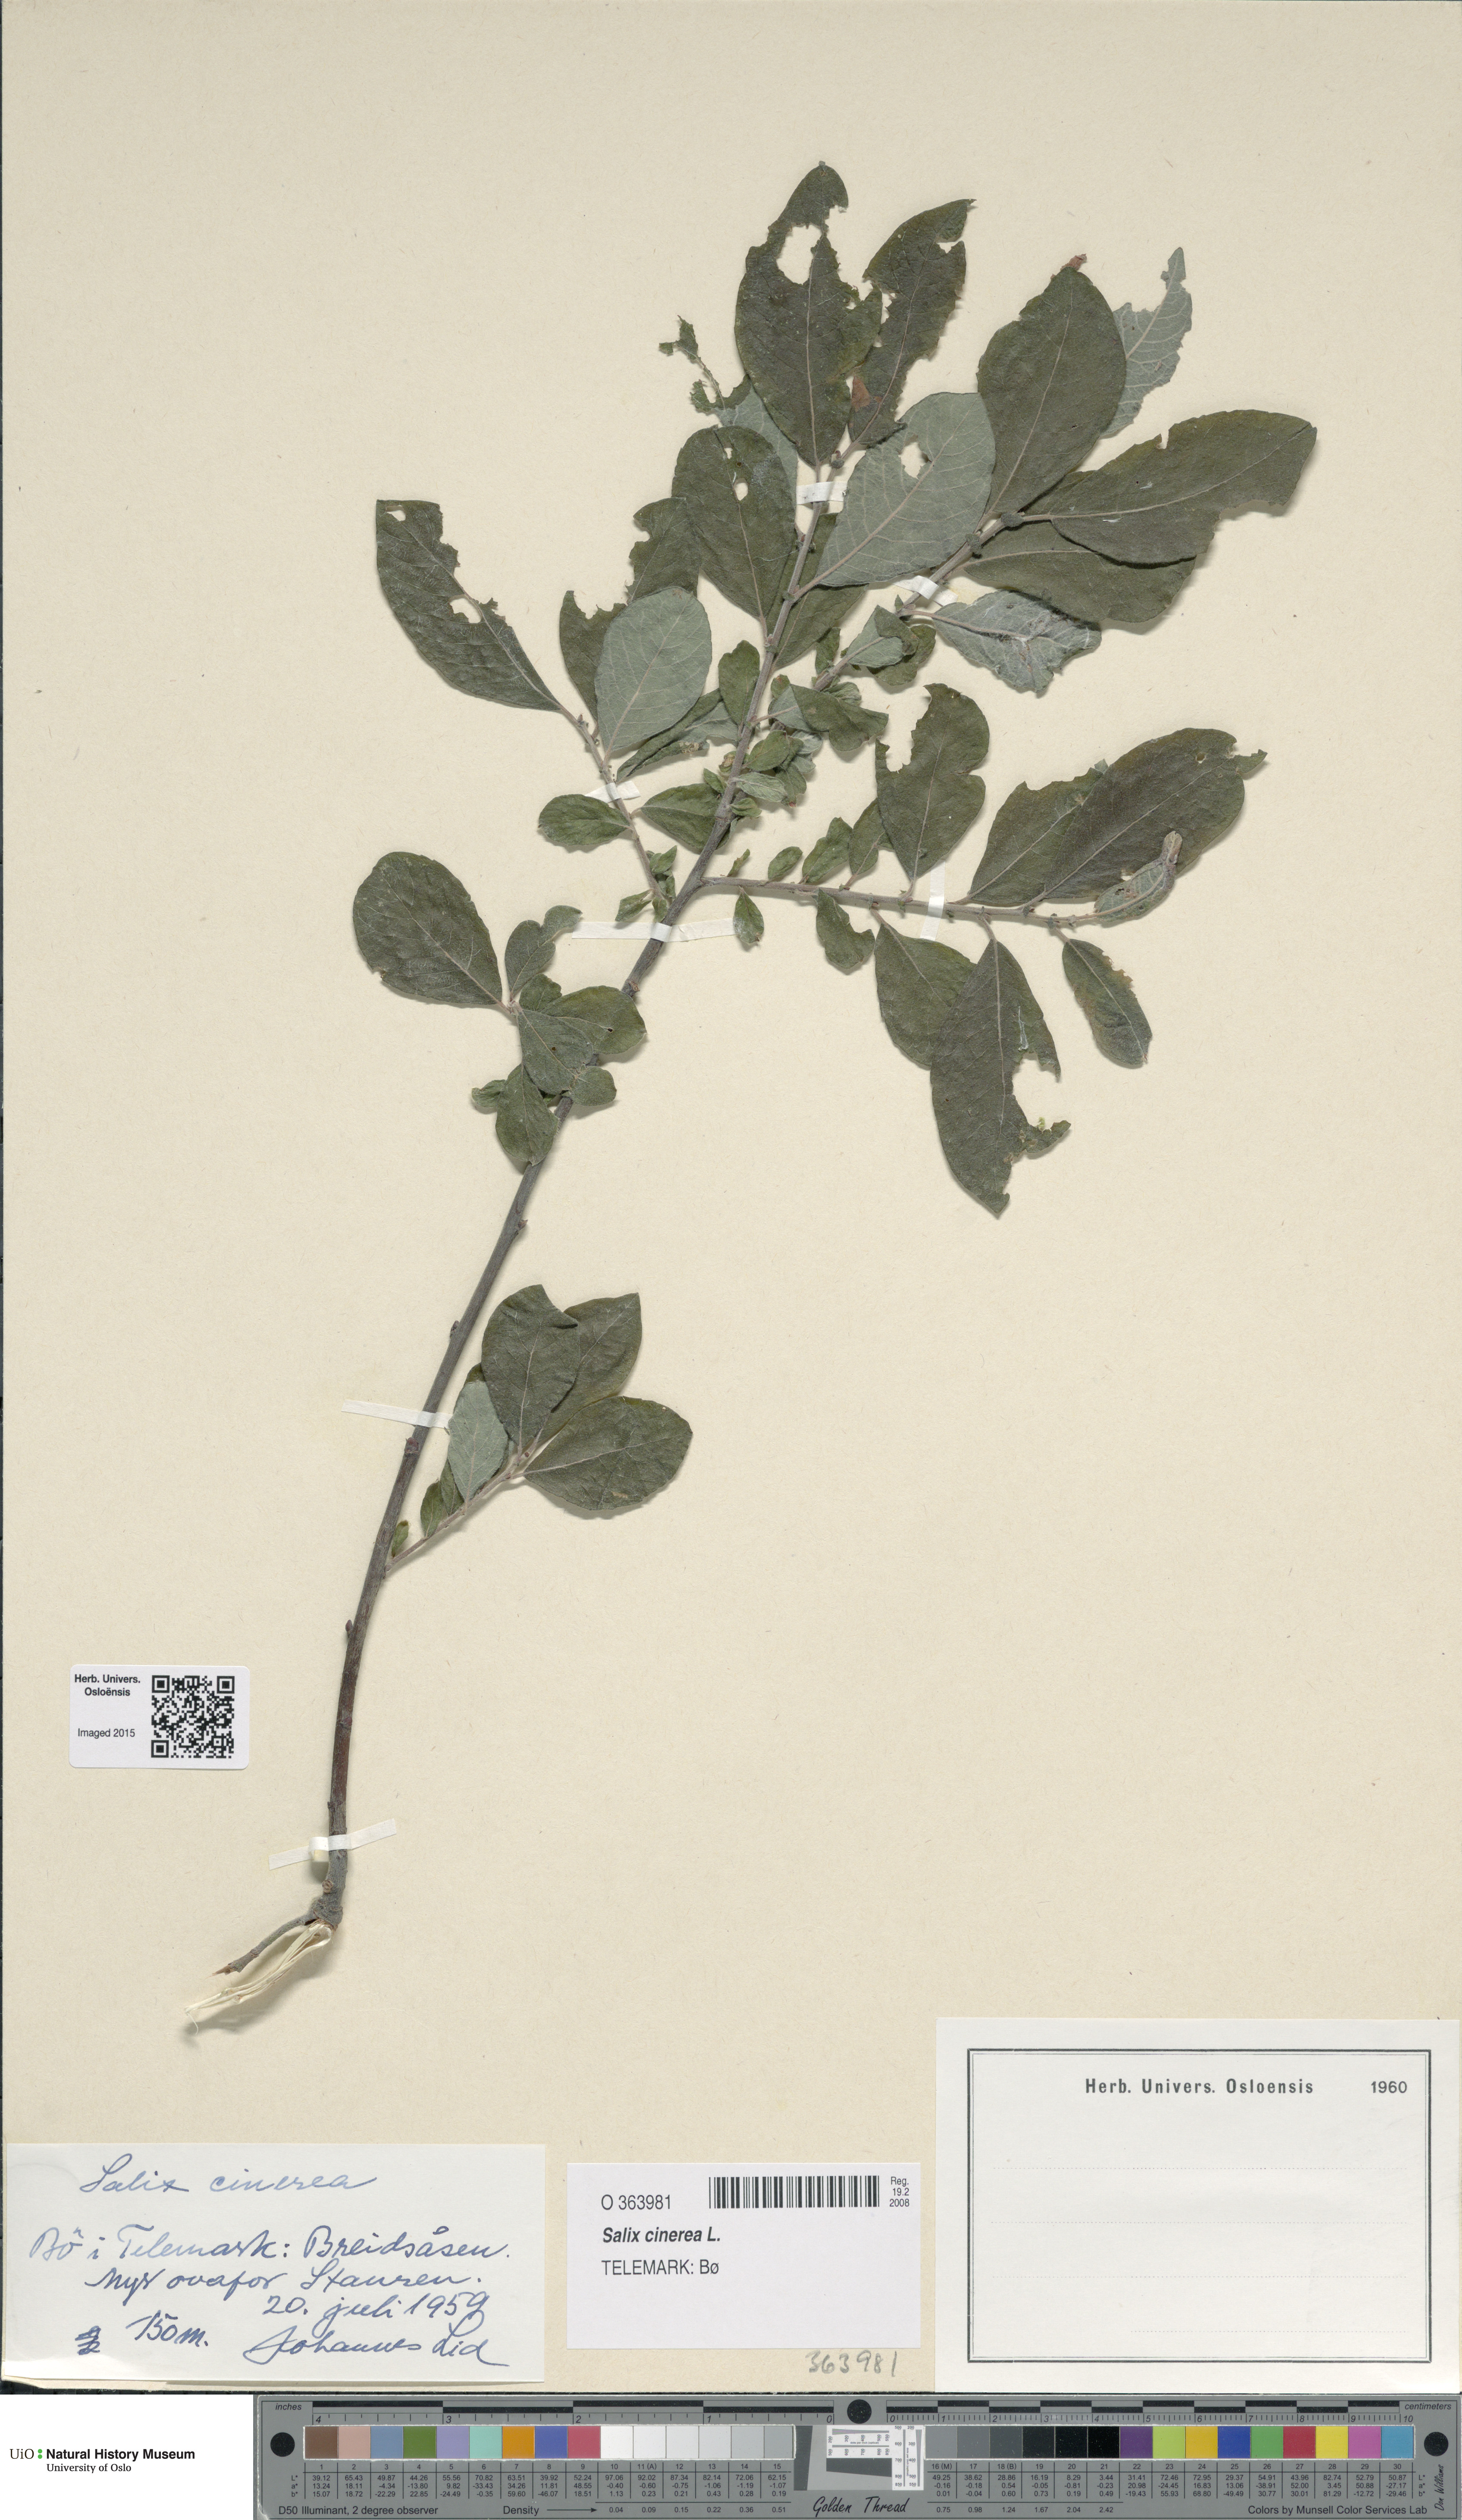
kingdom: Plantae
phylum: Tracheophyta
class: Magnoliopsida
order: Malpighiales
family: Salicaceae
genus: Salix
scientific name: Salix cinerea
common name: Common sallow
